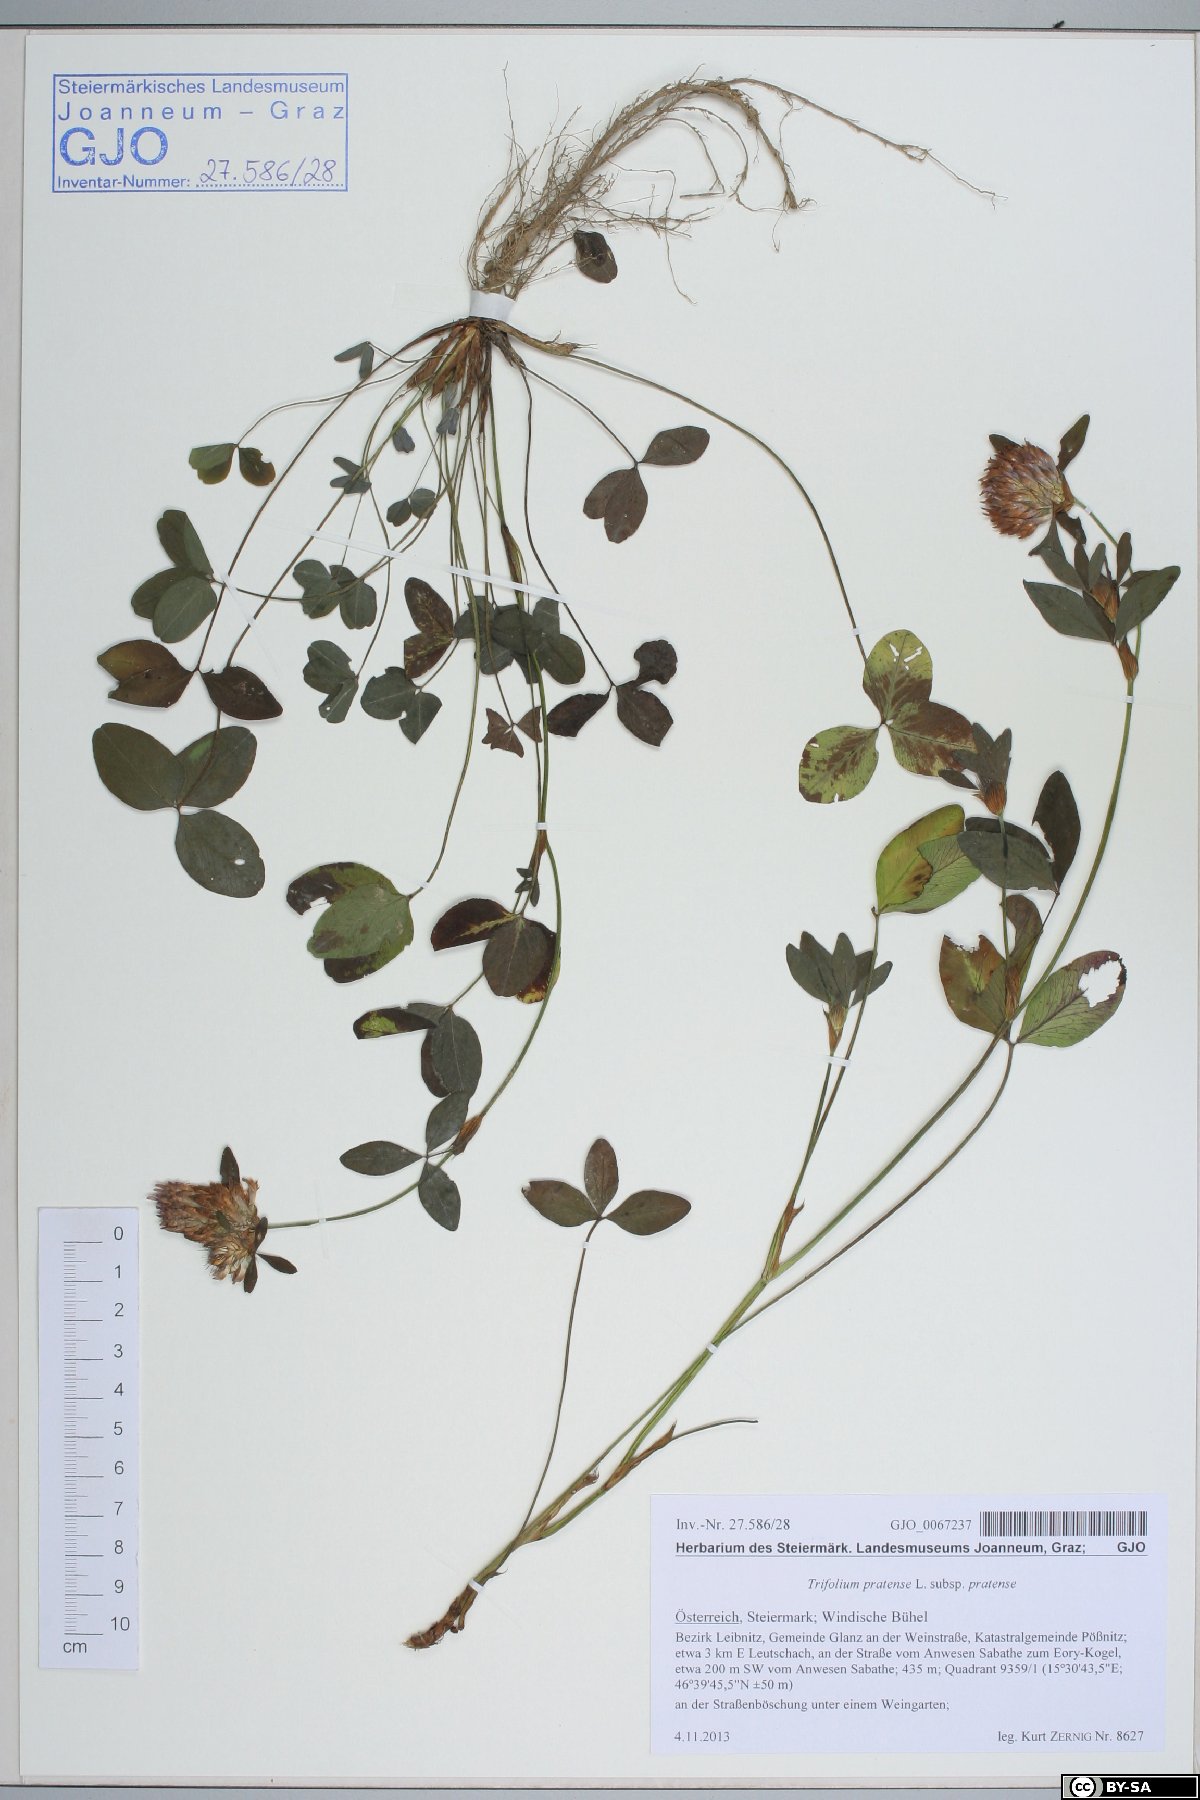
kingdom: Plantae
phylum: Tracheophyta
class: Magnoliopsida
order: Fabales
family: Fabaceae
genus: Trifolium
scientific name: Trifolium pratense
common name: Red clover
